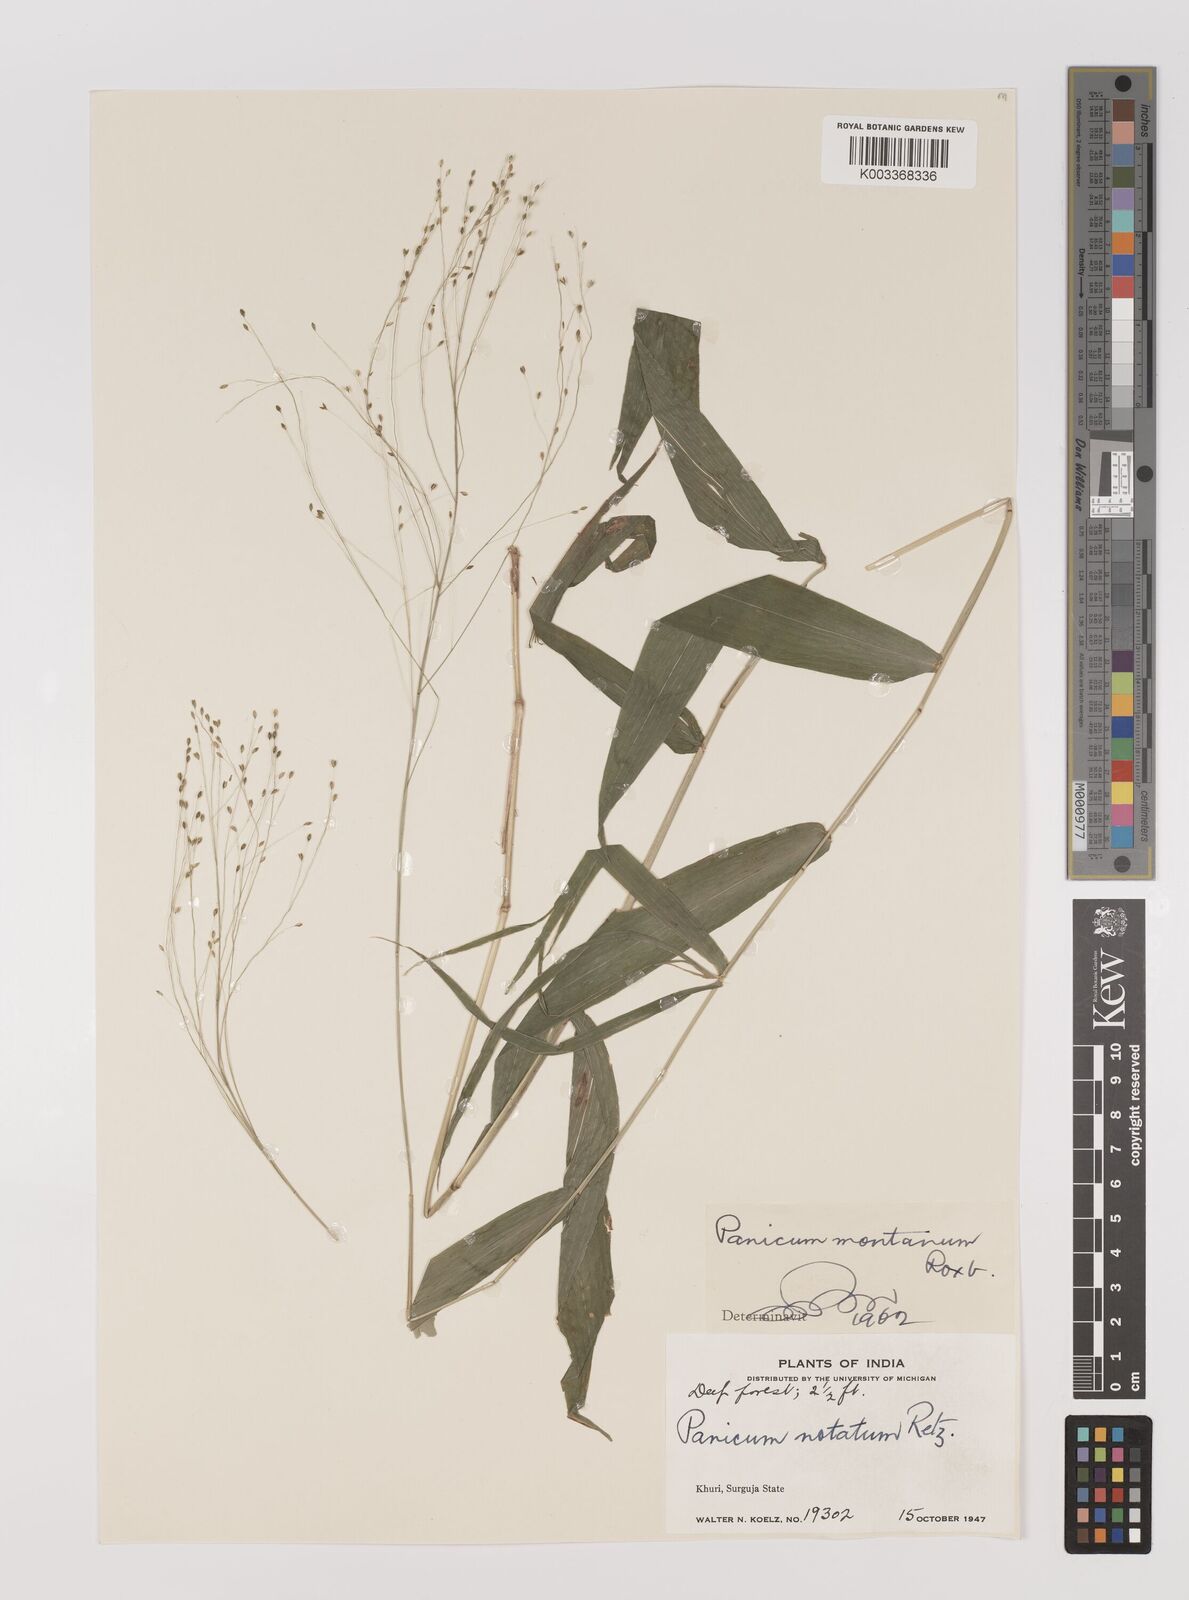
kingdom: Plantae
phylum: Tracheophyta
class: Liliopsida
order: Poales
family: Poaceae
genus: Panicum
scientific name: Panicum notatum
